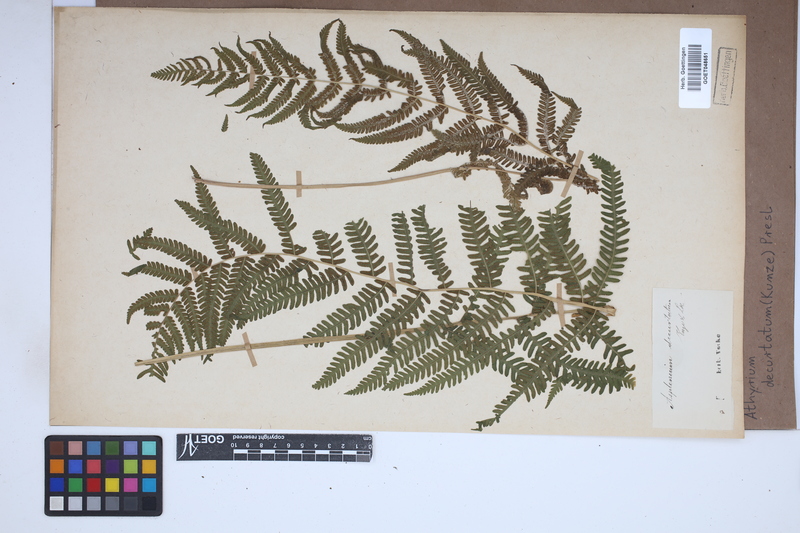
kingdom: Plantae
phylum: Tracheophyta
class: Polypodiopsida
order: Polypodiales
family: Thelypteridaceae
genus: Amauropelta
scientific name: Amauropelta decurtata
